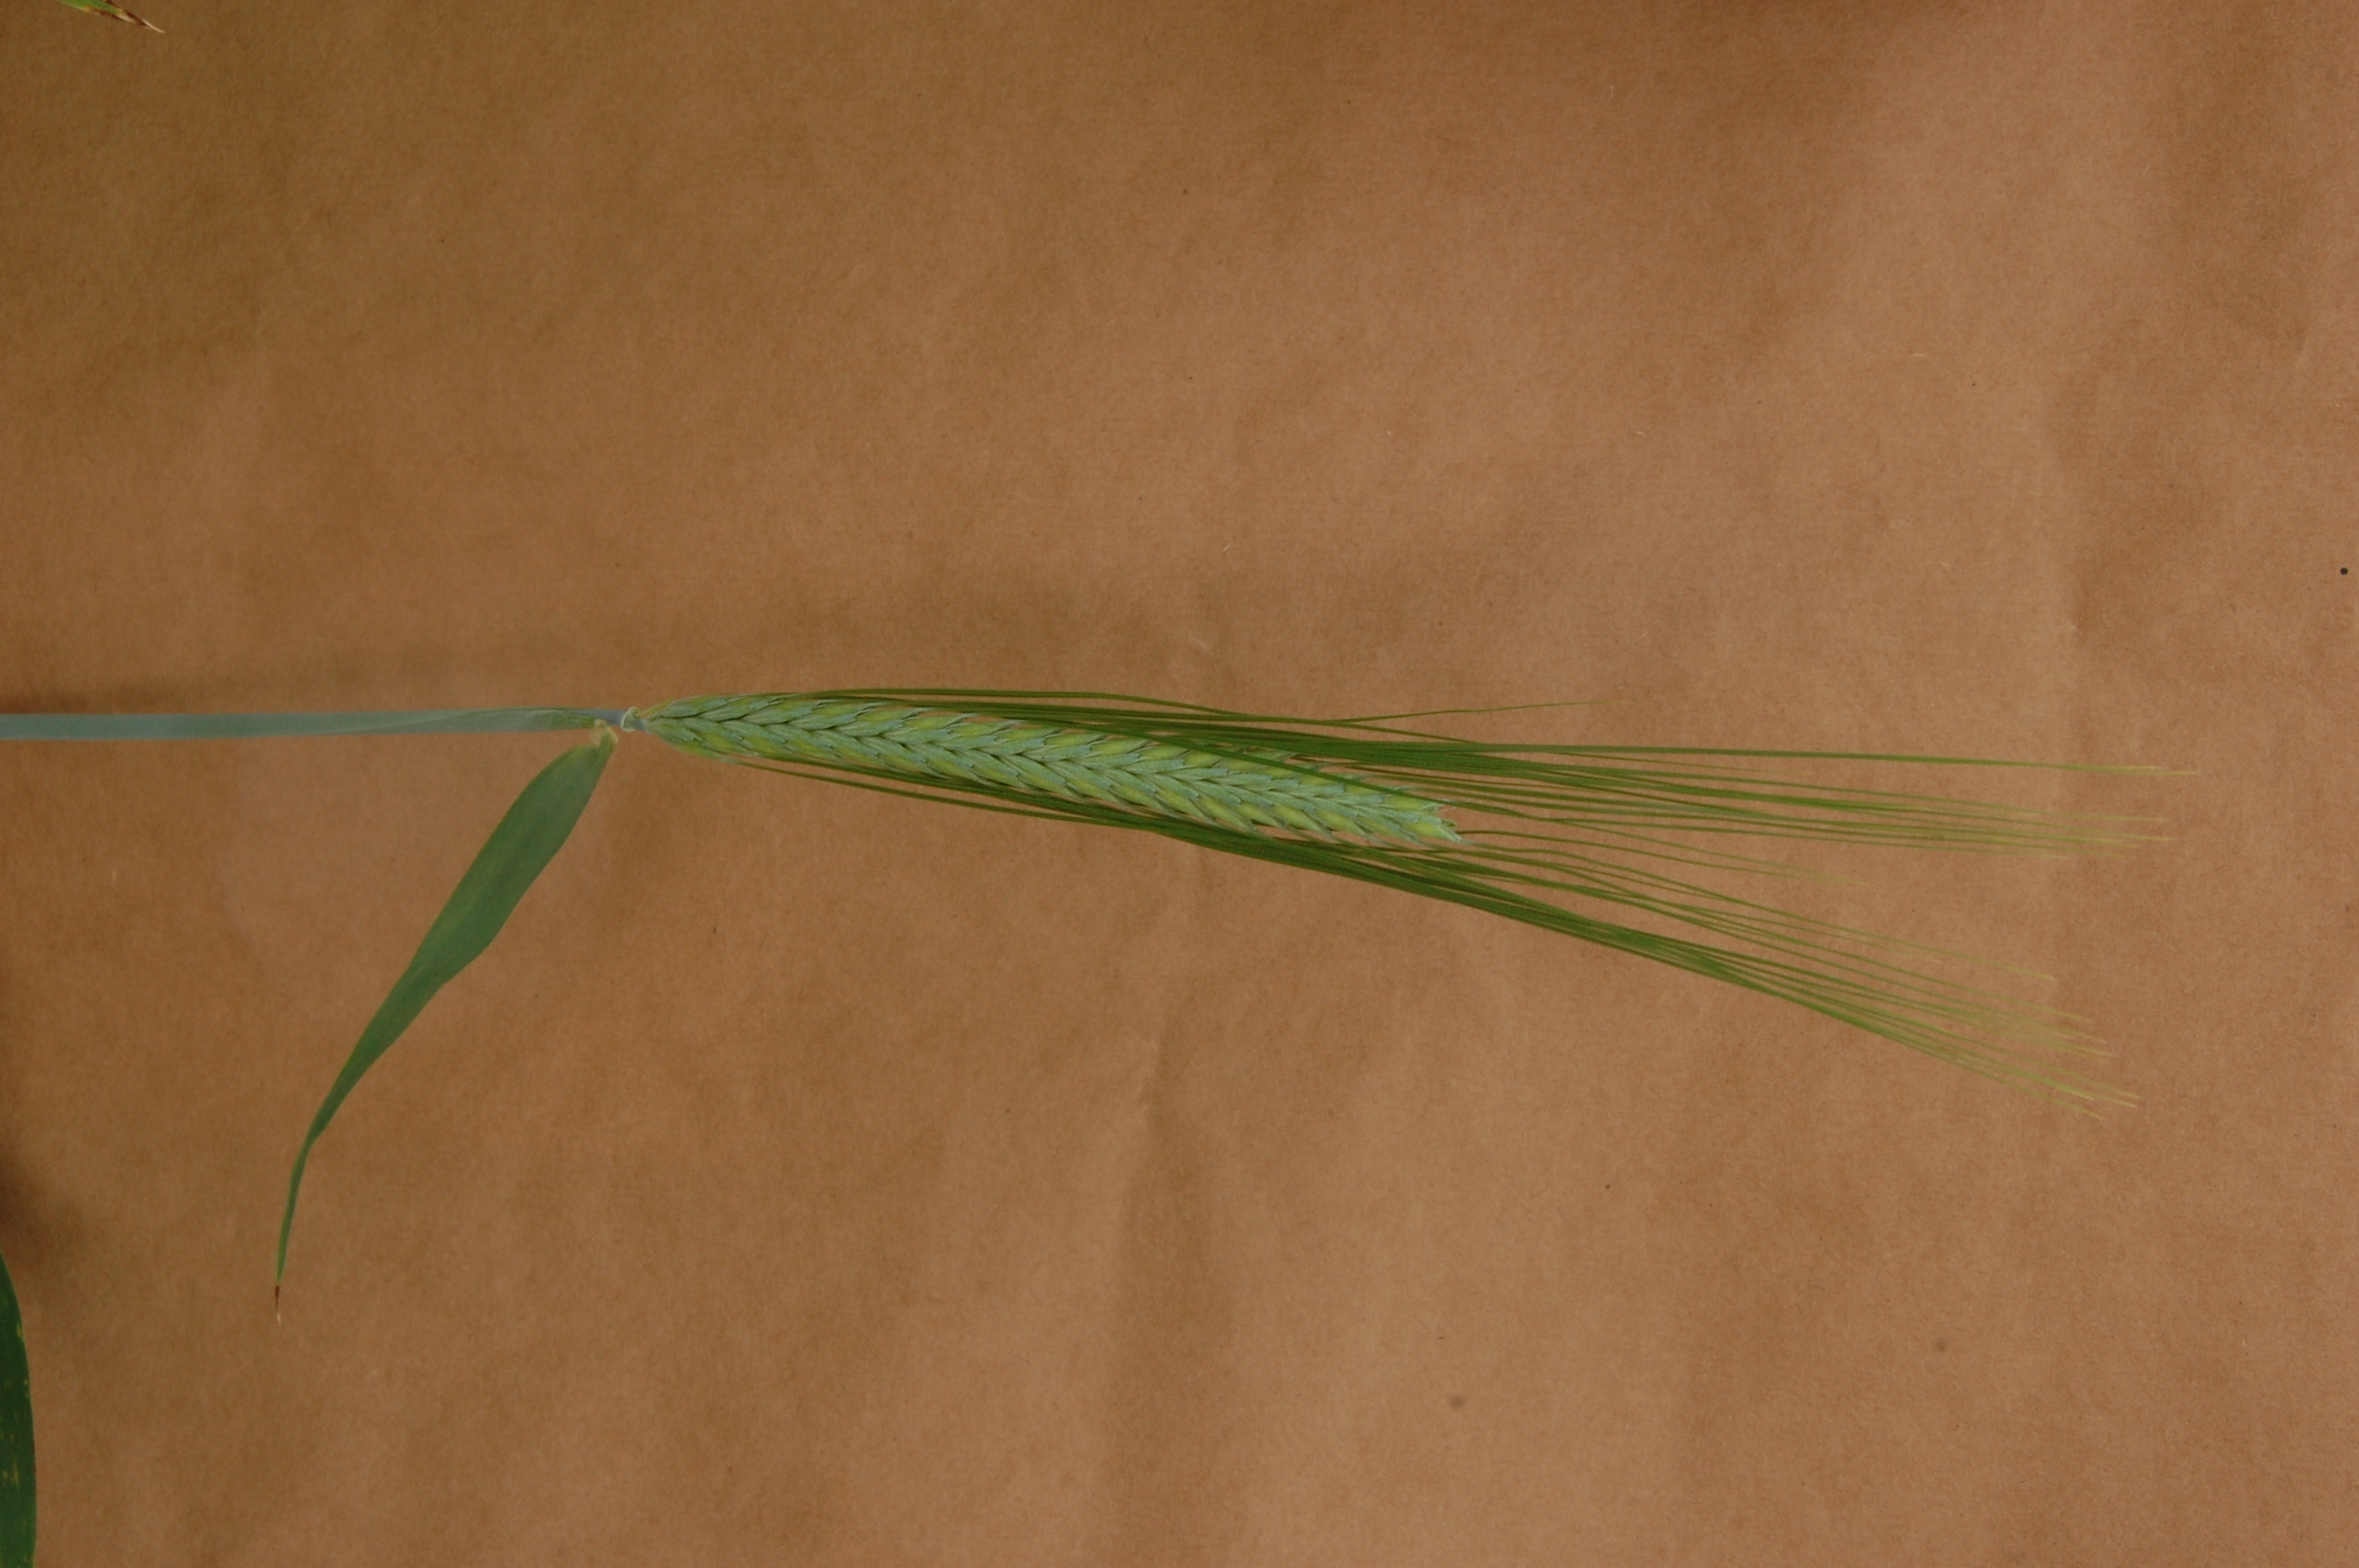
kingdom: Plantae
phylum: Tracheophyta
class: Liliopsida
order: Poales
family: Poaceae
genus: Hordeum
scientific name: Hordeum vulgare
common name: Common barley
